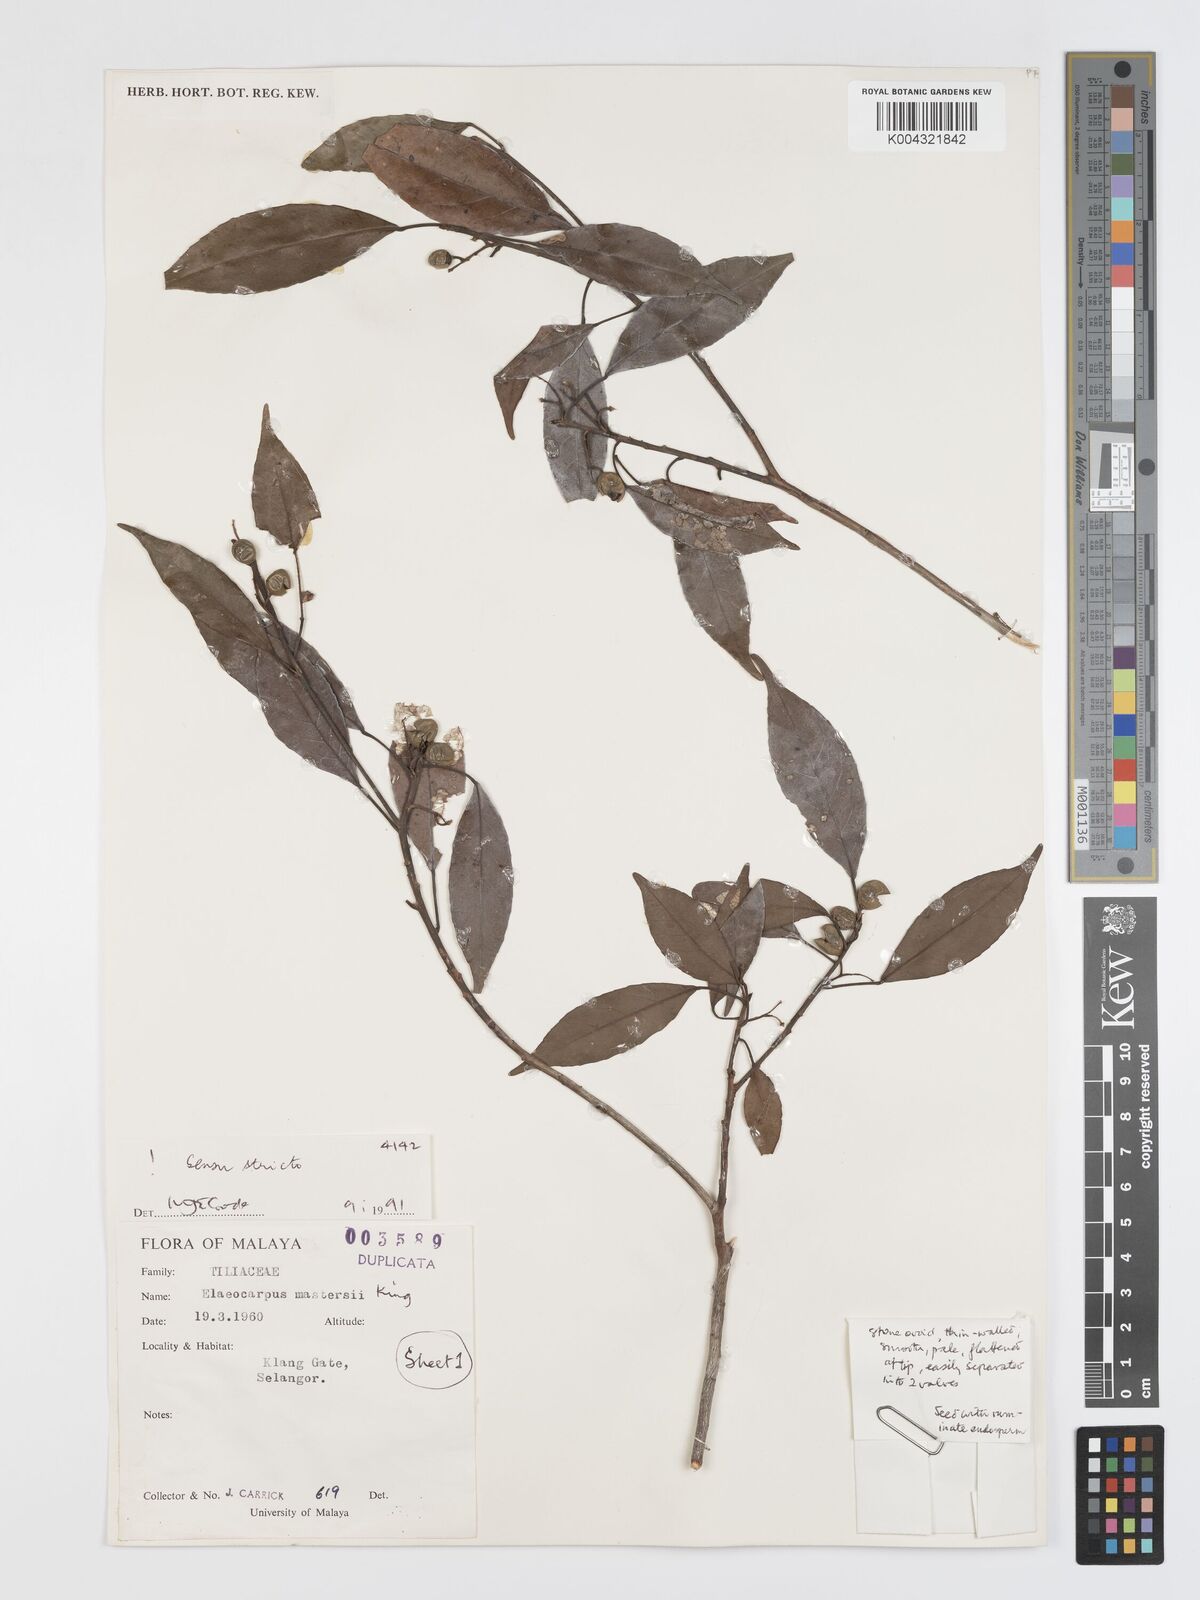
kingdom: Plantae
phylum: Tracheophyta
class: Magnoliopsida
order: Oxalidales
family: Elaeocarpaceae
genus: Elaeocarpus
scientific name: Elaeocarpus mastersii
